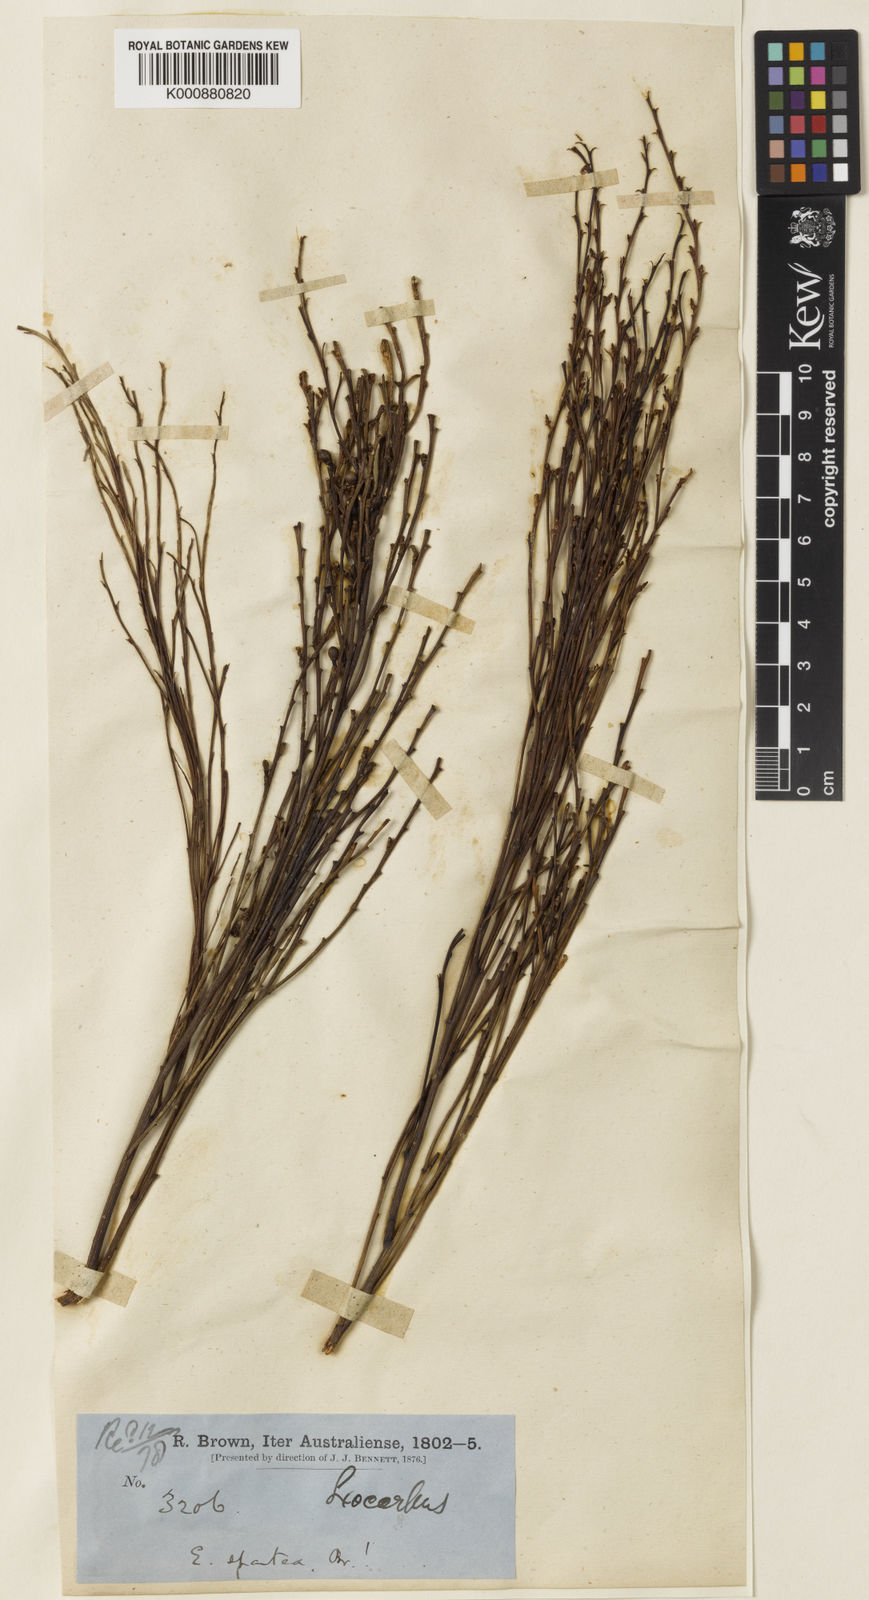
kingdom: Plantae
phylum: Tracheophyta
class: Magnoliopsida
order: Santalales
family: Santalaceae
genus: Exocarpos
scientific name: Exocarpos sparteus
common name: Broom ballart
